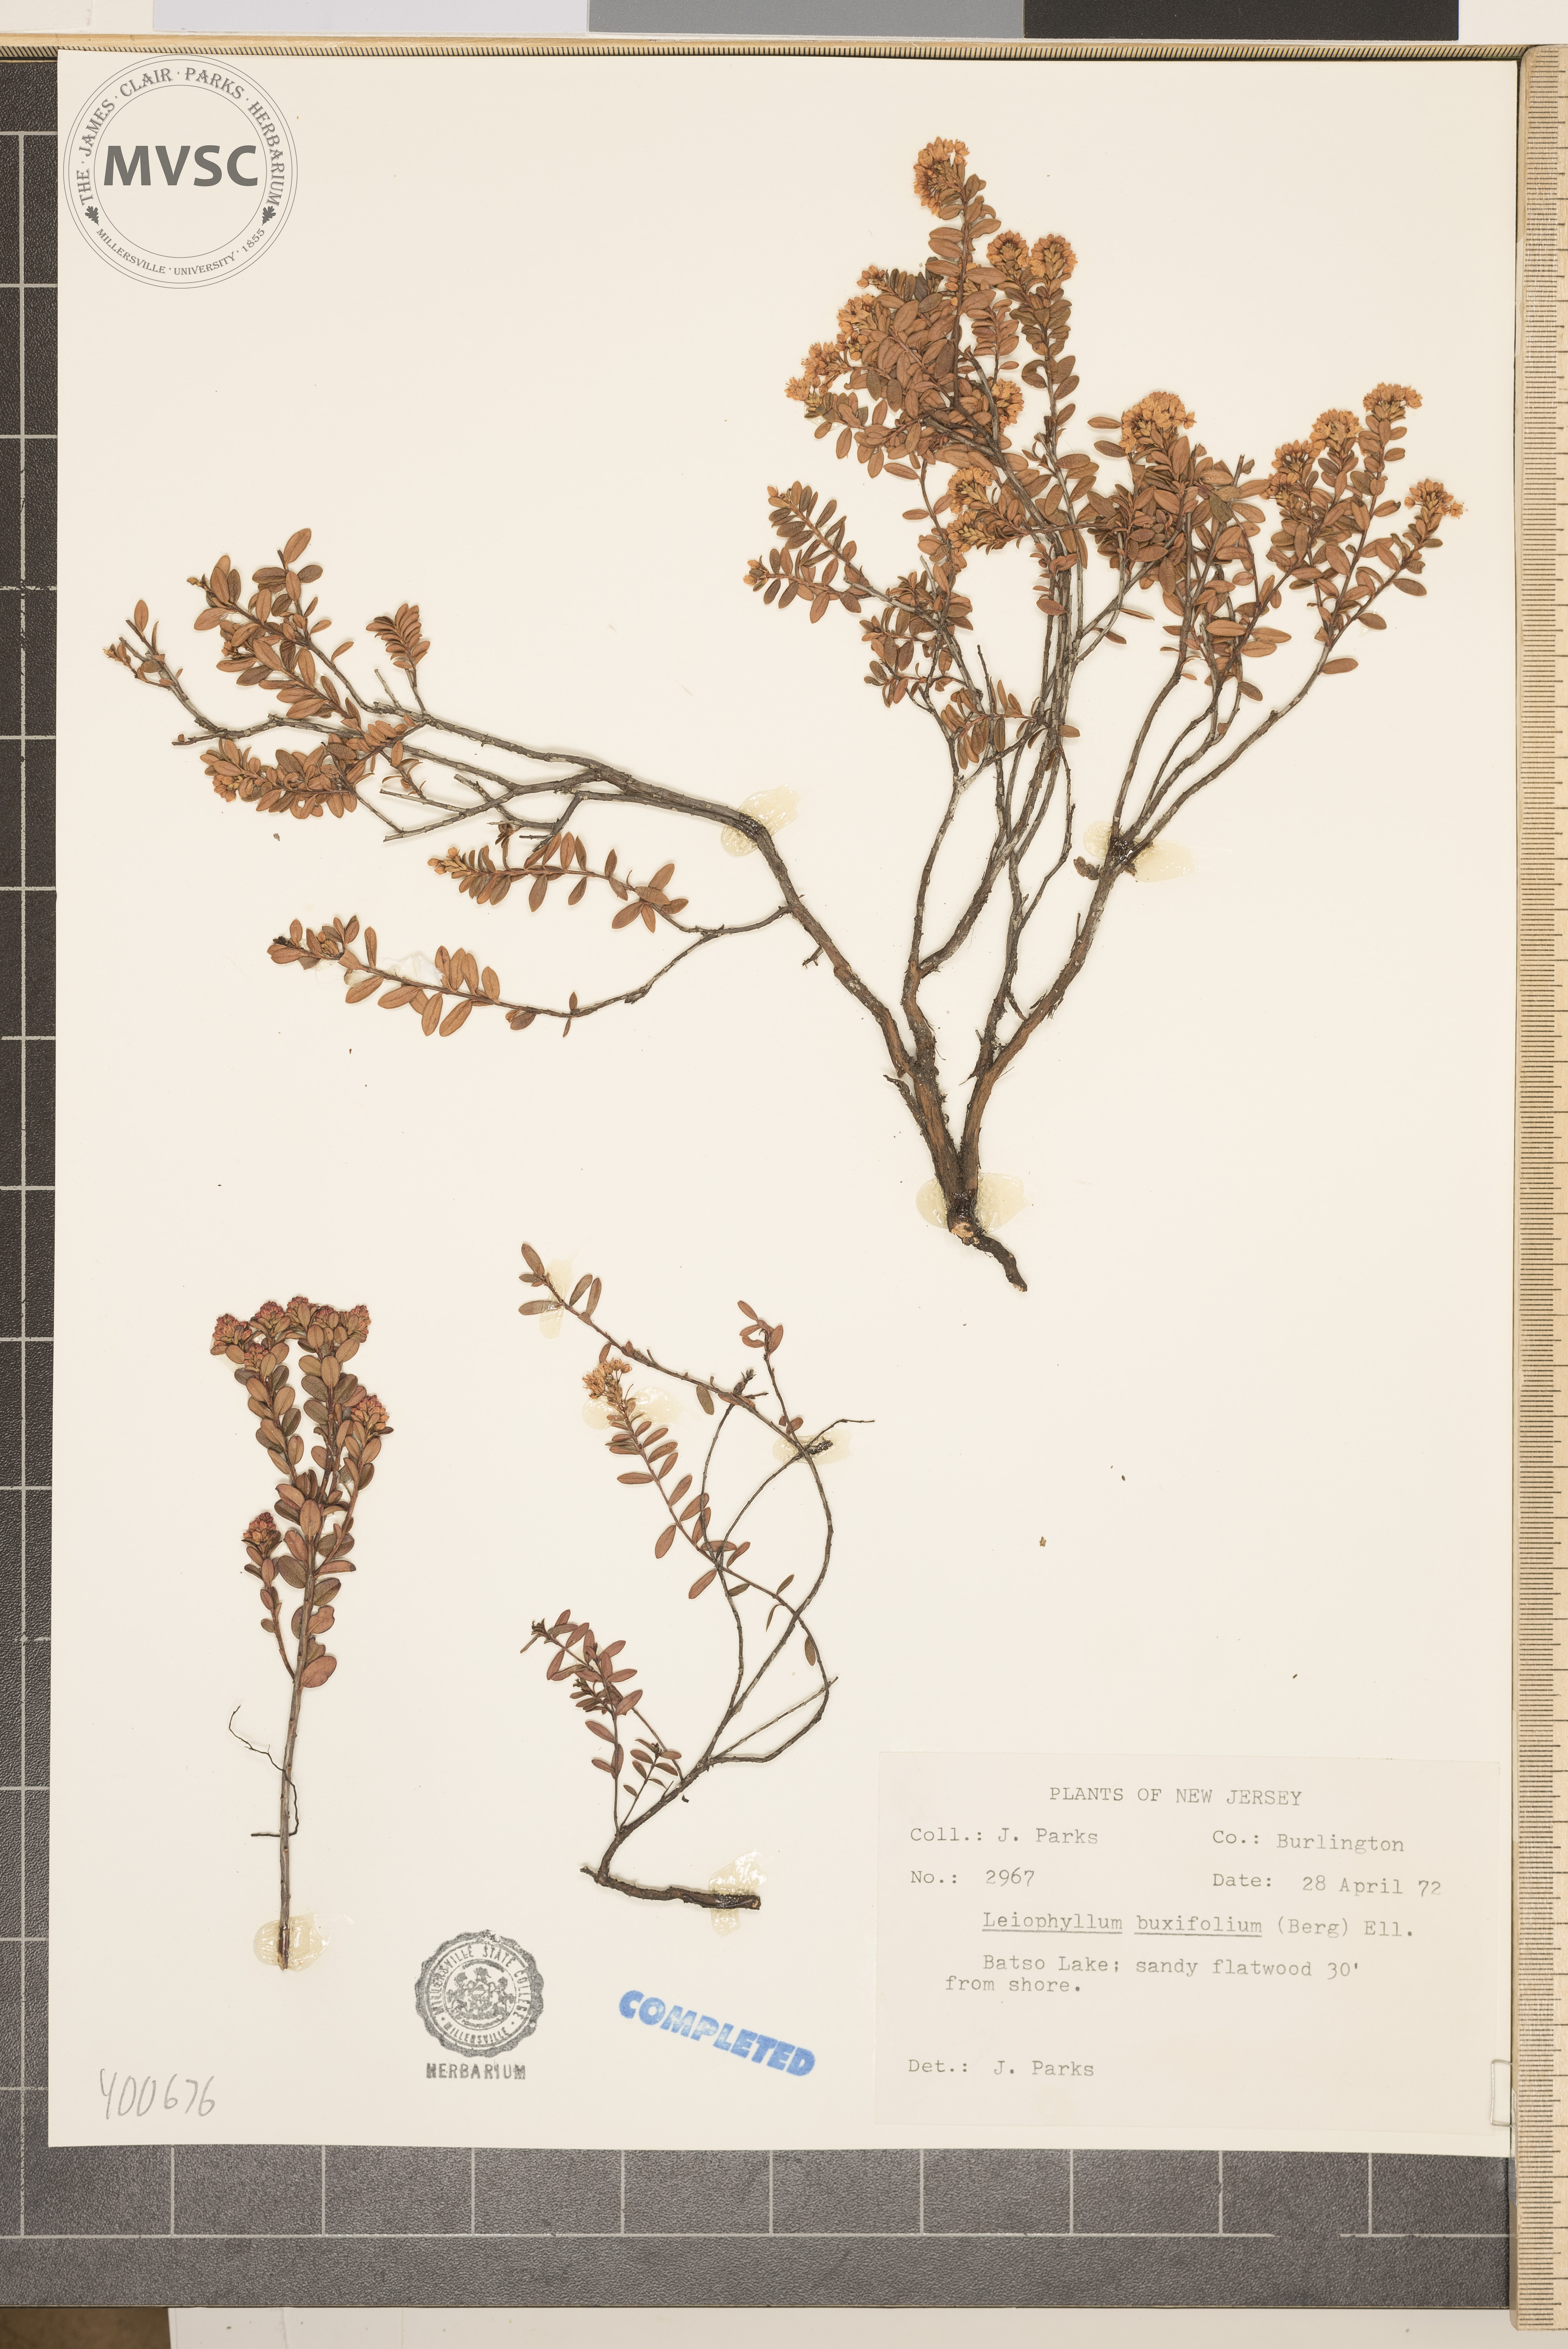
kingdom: Plantae
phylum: Tracheophyta
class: Magnoliopsida
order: Ericales
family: Ericaceae
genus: Kalmia
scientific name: Kalmia buxifolia
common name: Sandmyrtle
